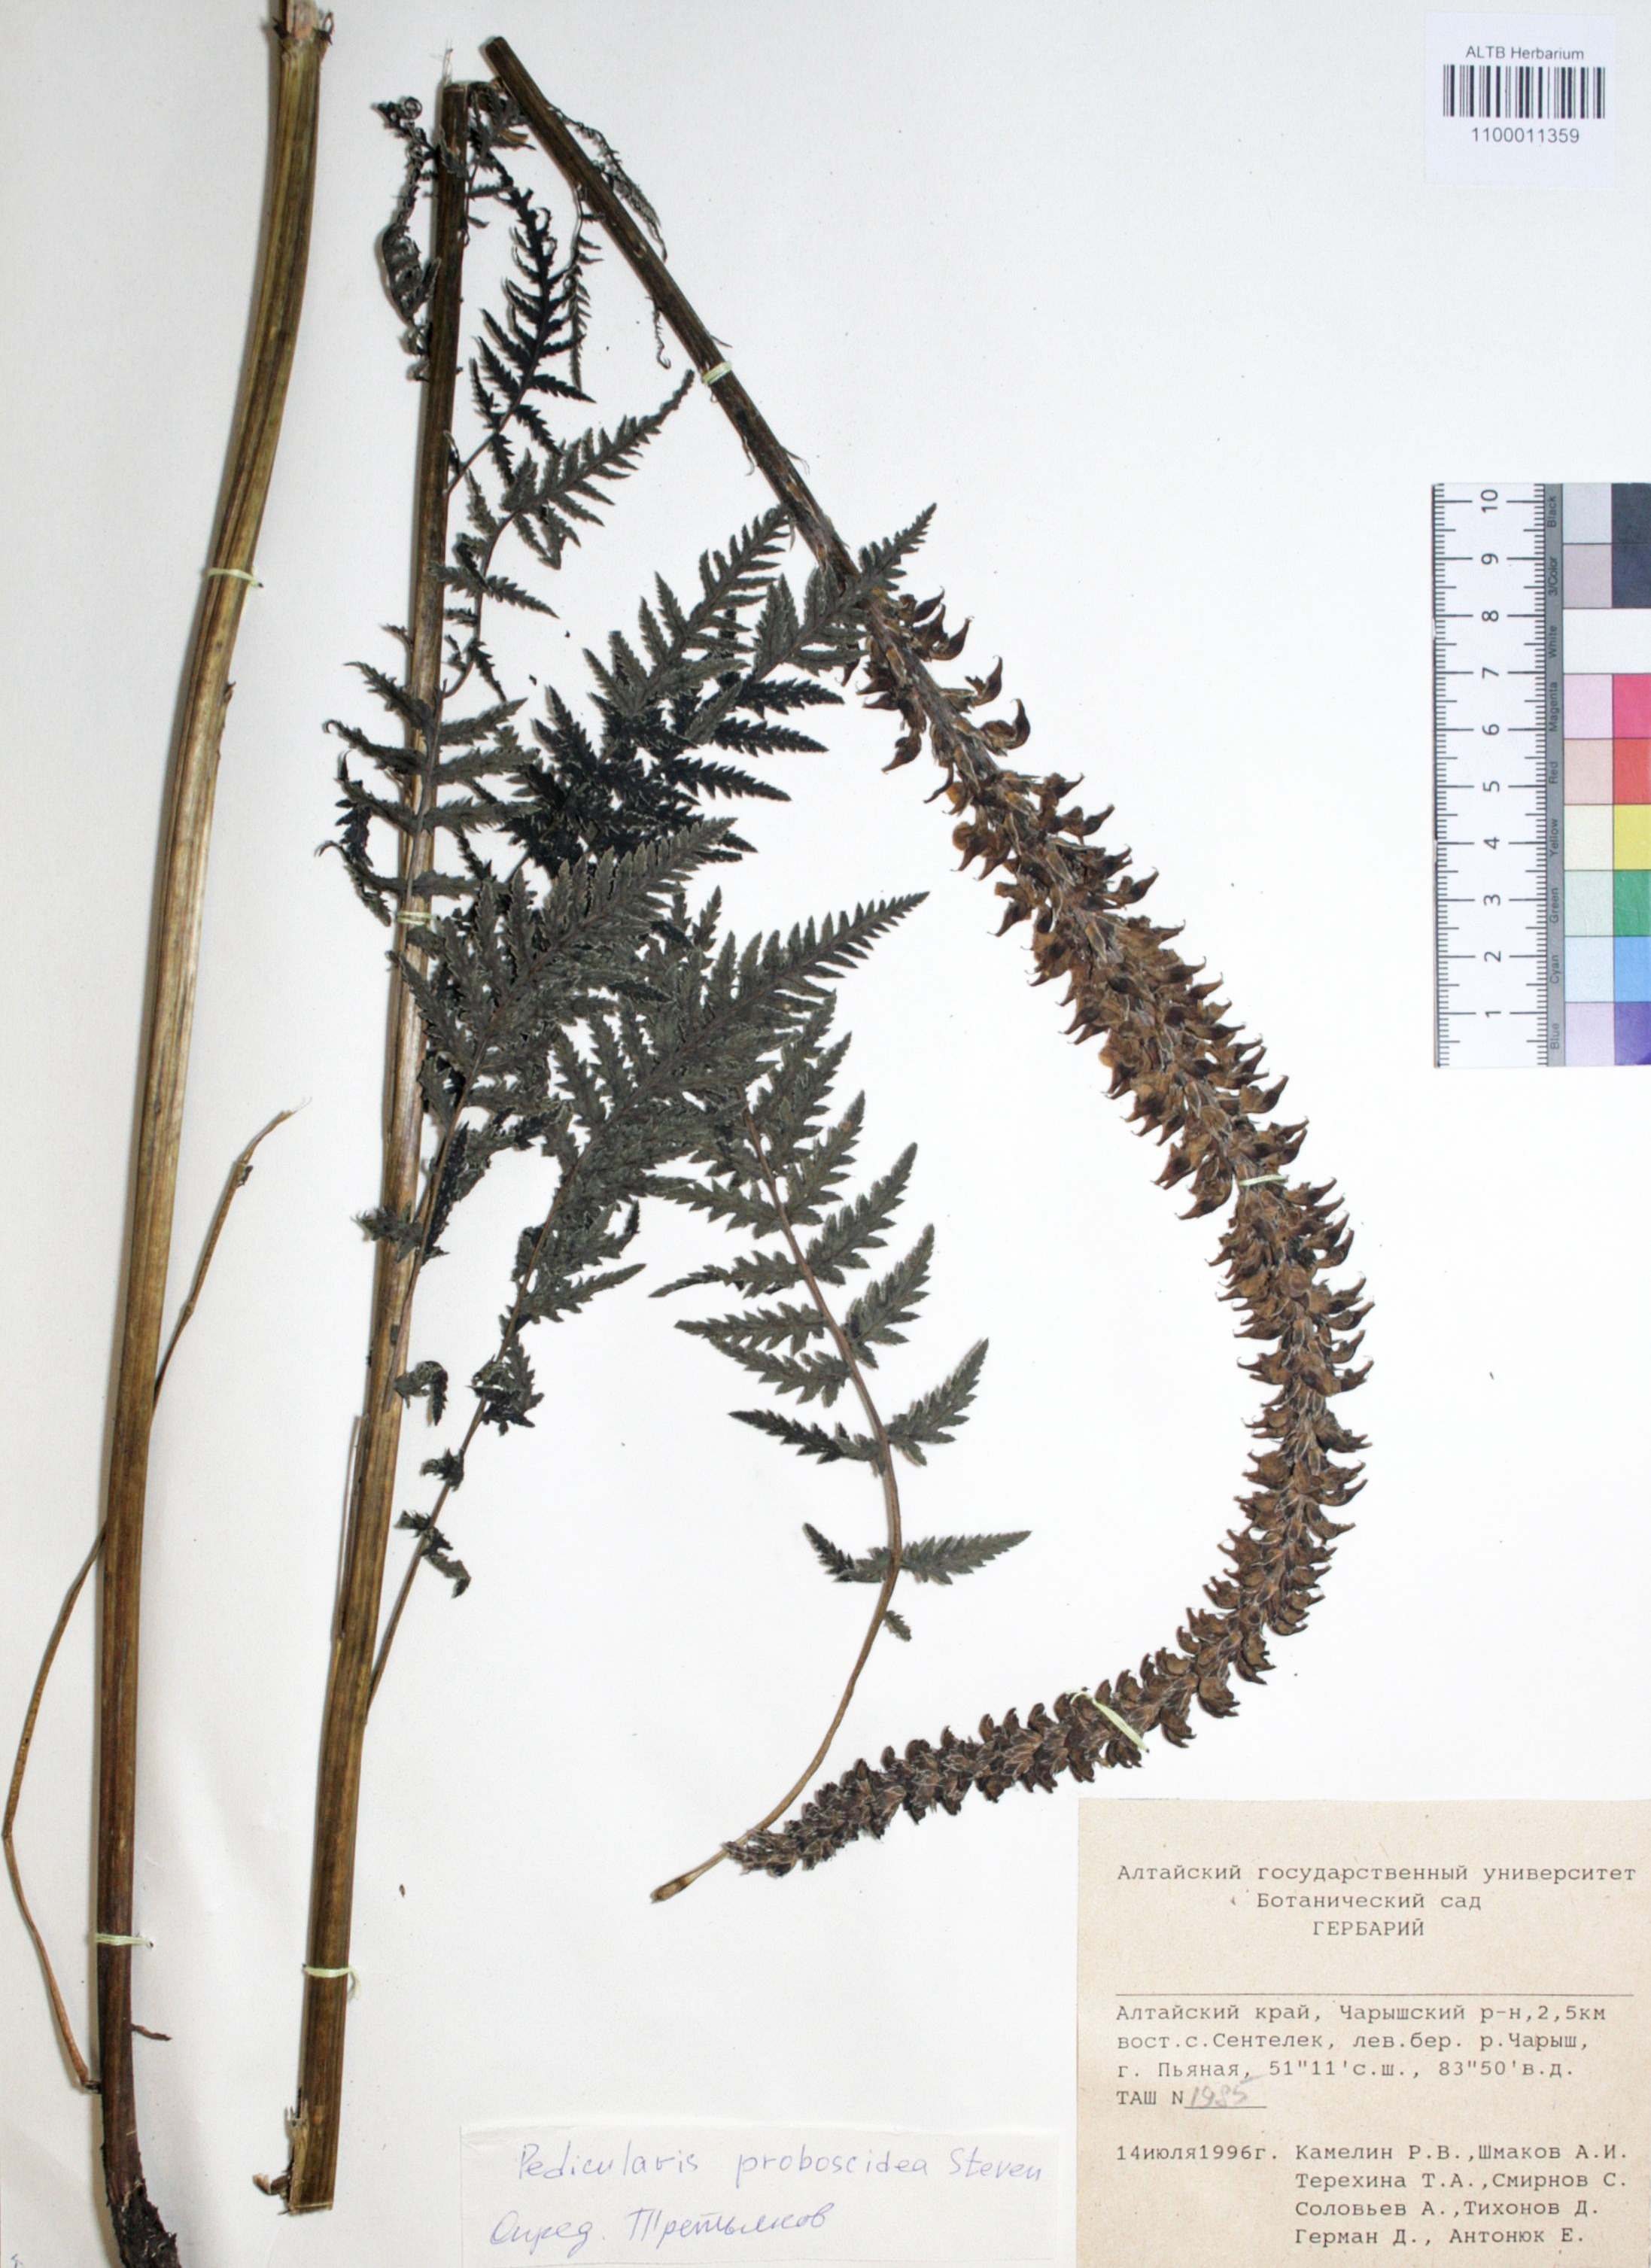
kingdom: Plantae
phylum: Tracheophyta
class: Magnoliopsida
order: Lamiales
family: Orobanchaceae
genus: Pedicularis
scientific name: Pedicularis proboscidea
